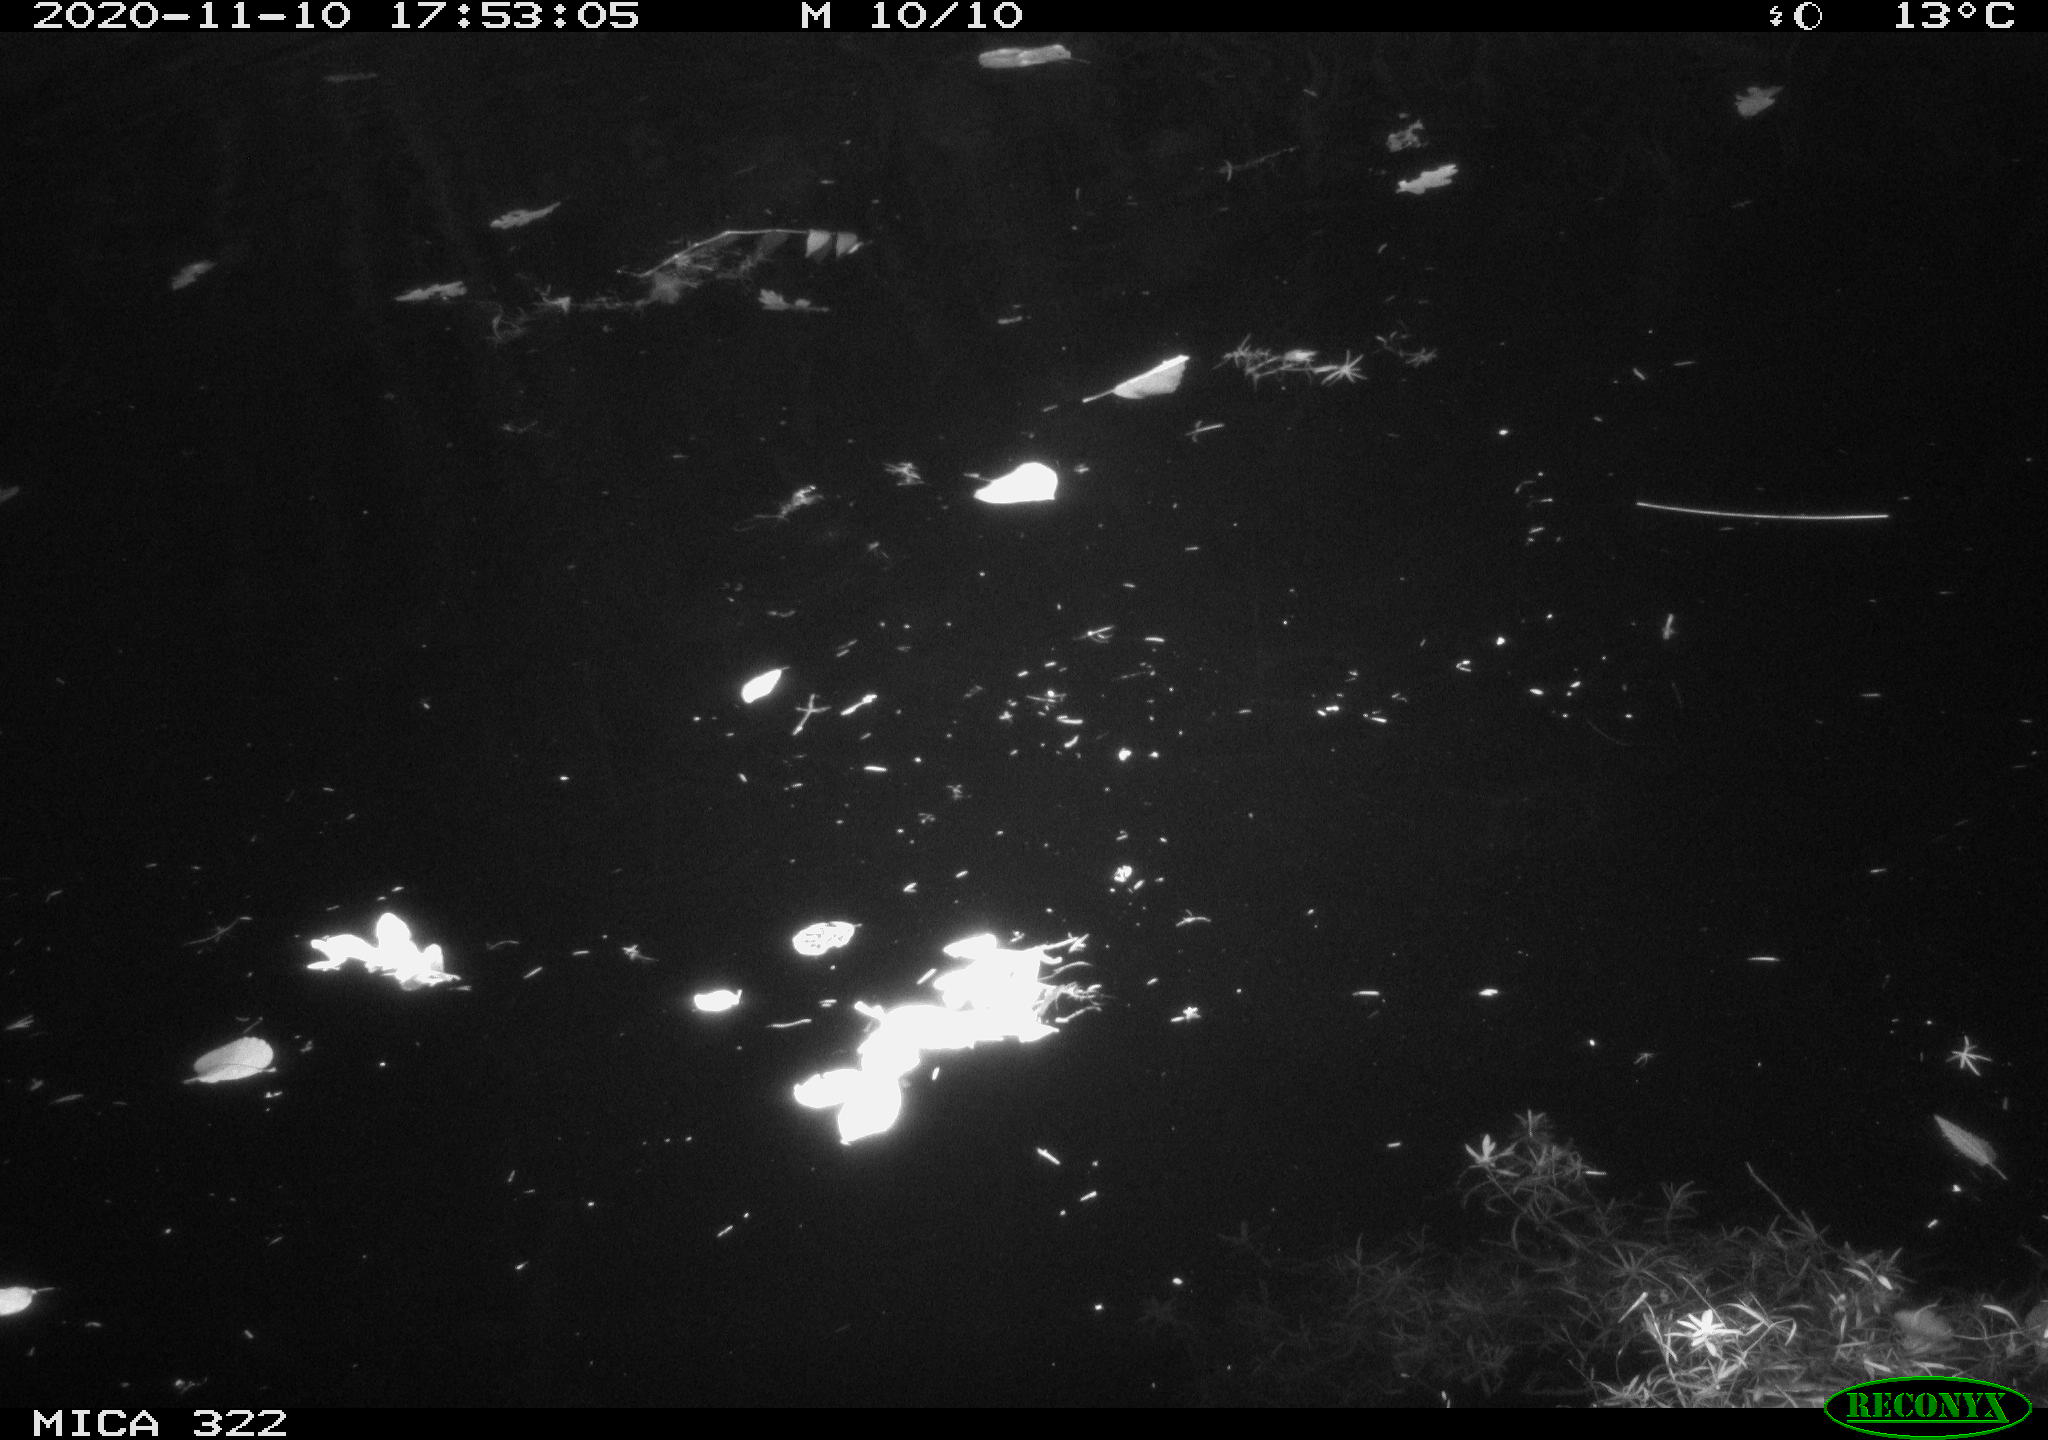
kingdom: Animalia
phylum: Chordata
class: Aves
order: Anseriformes
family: Anatidae
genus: Mareca
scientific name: Mareca strepera
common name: Gadwall
